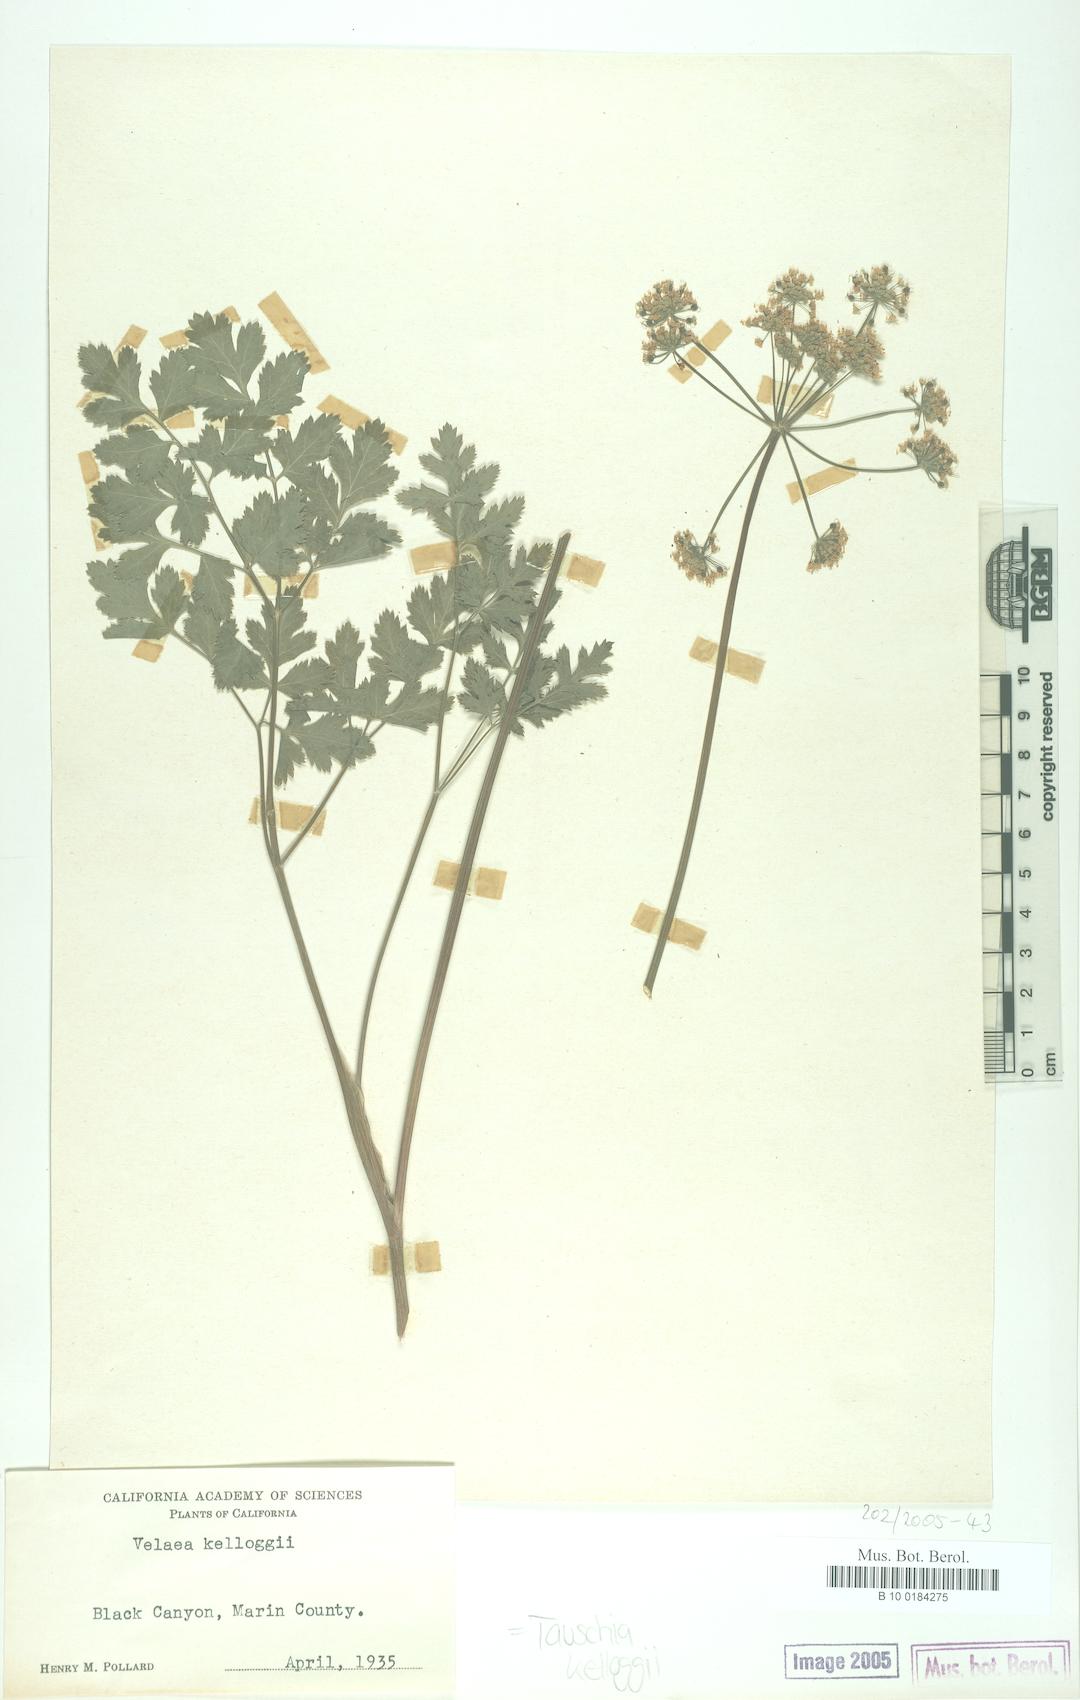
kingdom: Plantae
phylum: Tracheophyta
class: Magnoliopsida
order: Apiales
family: Apiaceae
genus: Tauschia
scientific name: Tauschia kelloggii
